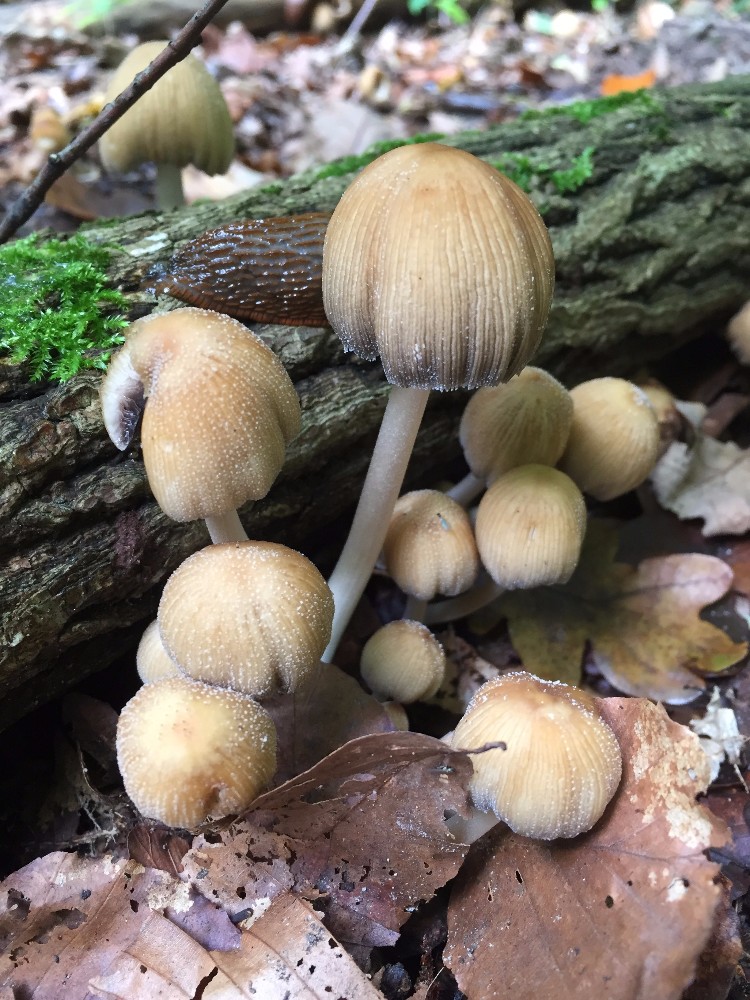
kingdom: Fungi
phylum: Basidiomycota
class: Agaricomycetes
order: Agaricales
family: Psathyrellaceae
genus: Coprinellus
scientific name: Coprinellus micaceus
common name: glimmer-blækhat
